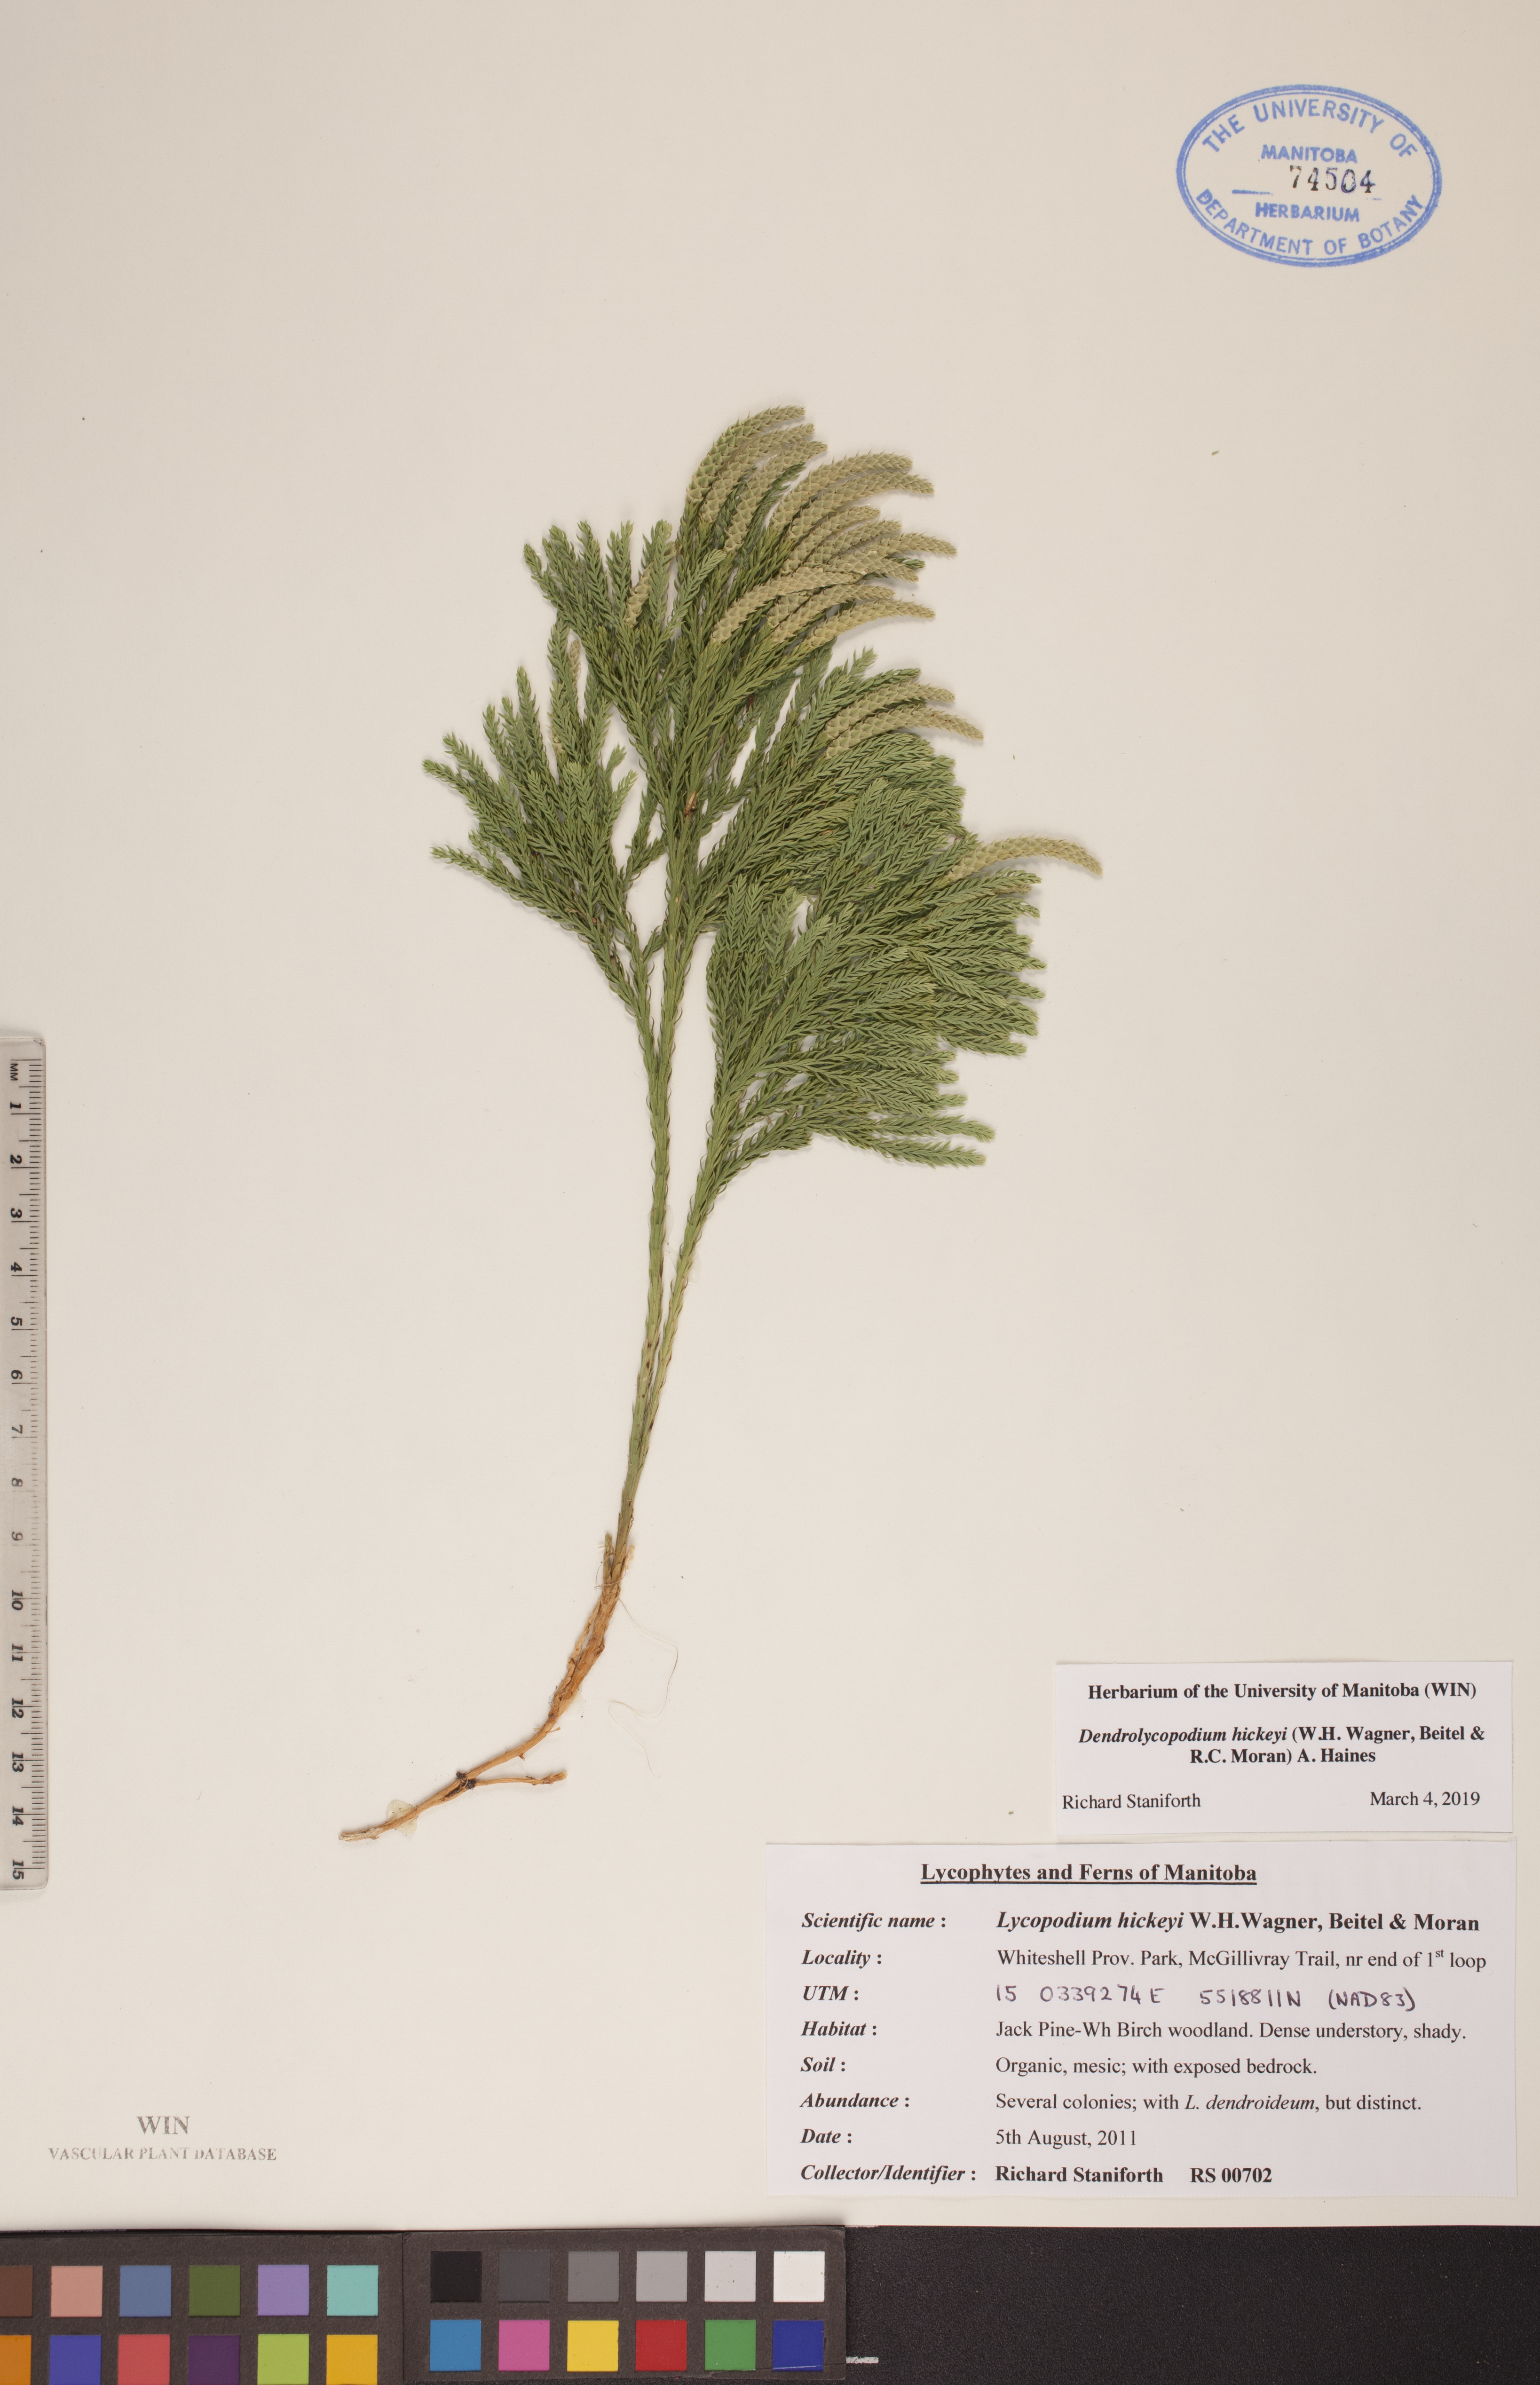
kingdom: Plantae
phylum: Tracheophyta
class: Lycopodiopsida
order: Lycopodiales
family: Lycopodiaceae
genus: Dendrolycopodium
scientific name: Dendrolycopodium hickeyi
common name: Hickey's clubmoss
